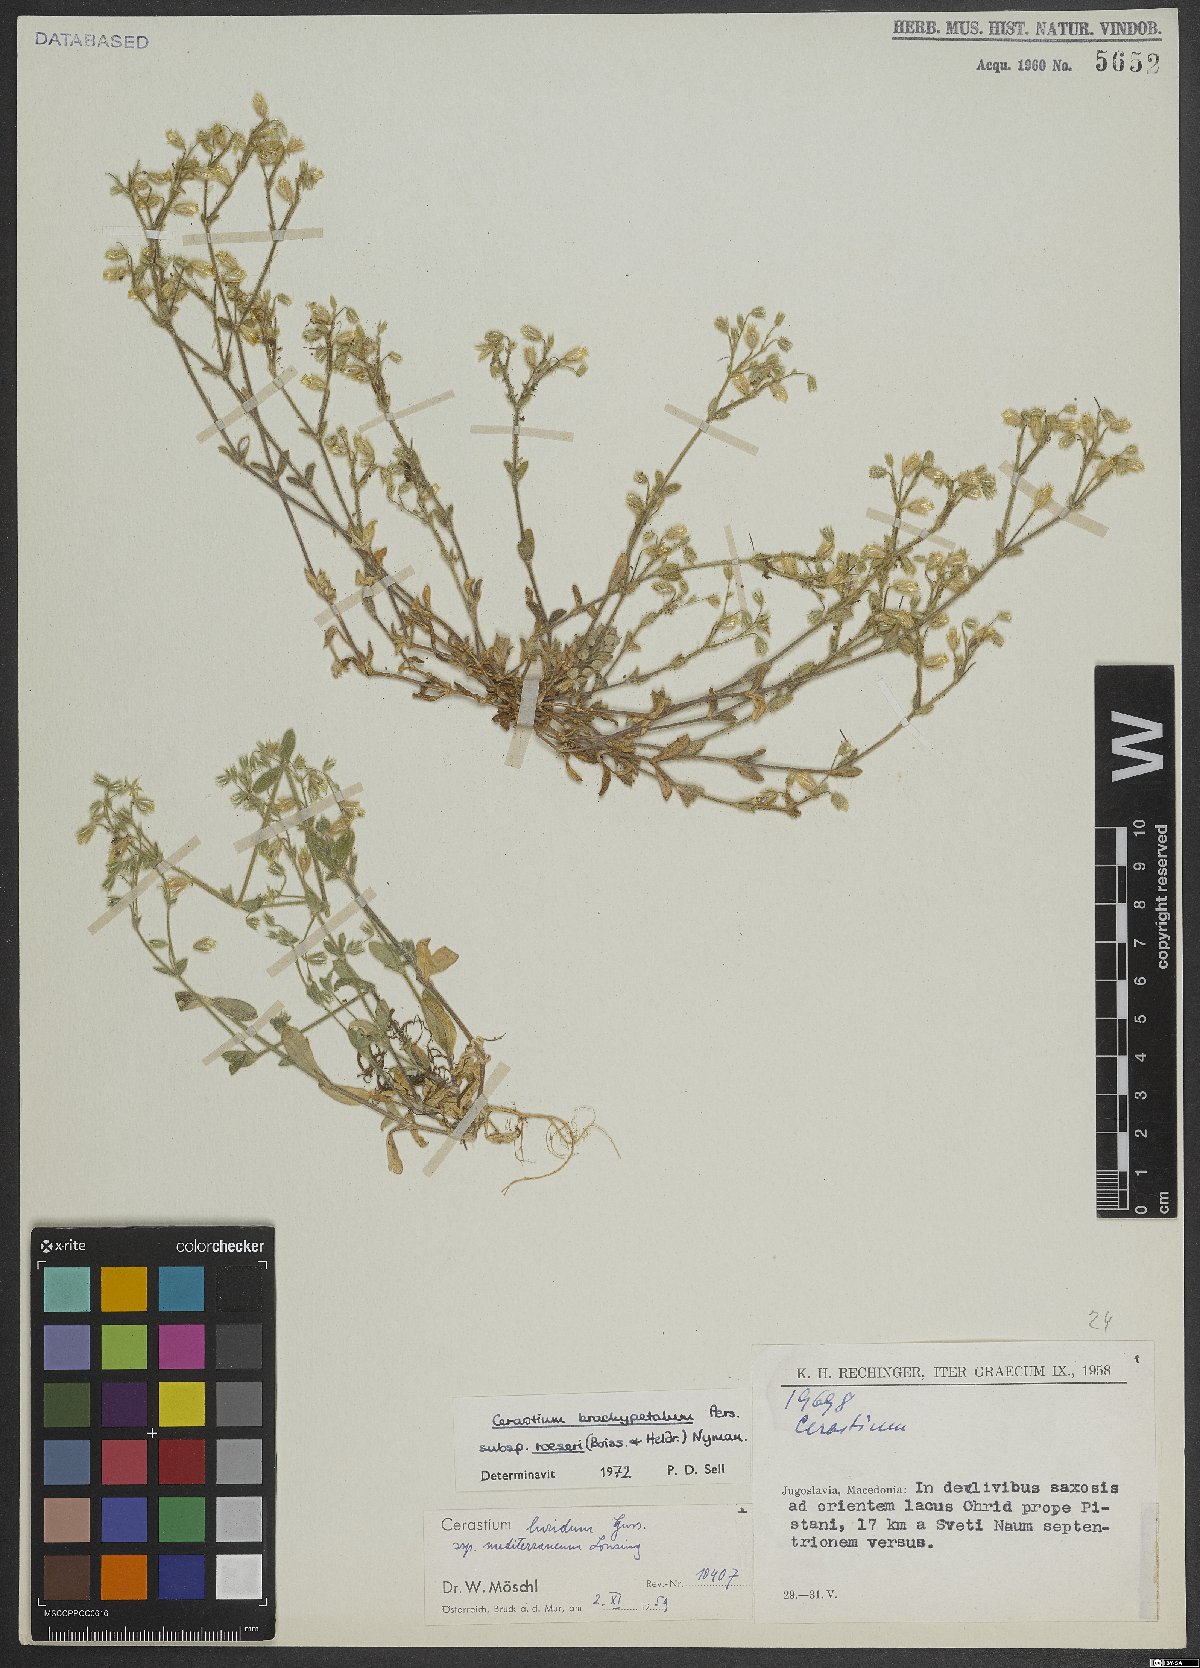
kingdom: Plantae
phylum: Tracheophyta
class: Magnoliopsida
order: Caryophyllales
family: Caryophyllaceae
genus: Cerastium
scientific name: Cerastium brachypetalum
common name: Grey mouse-ear
